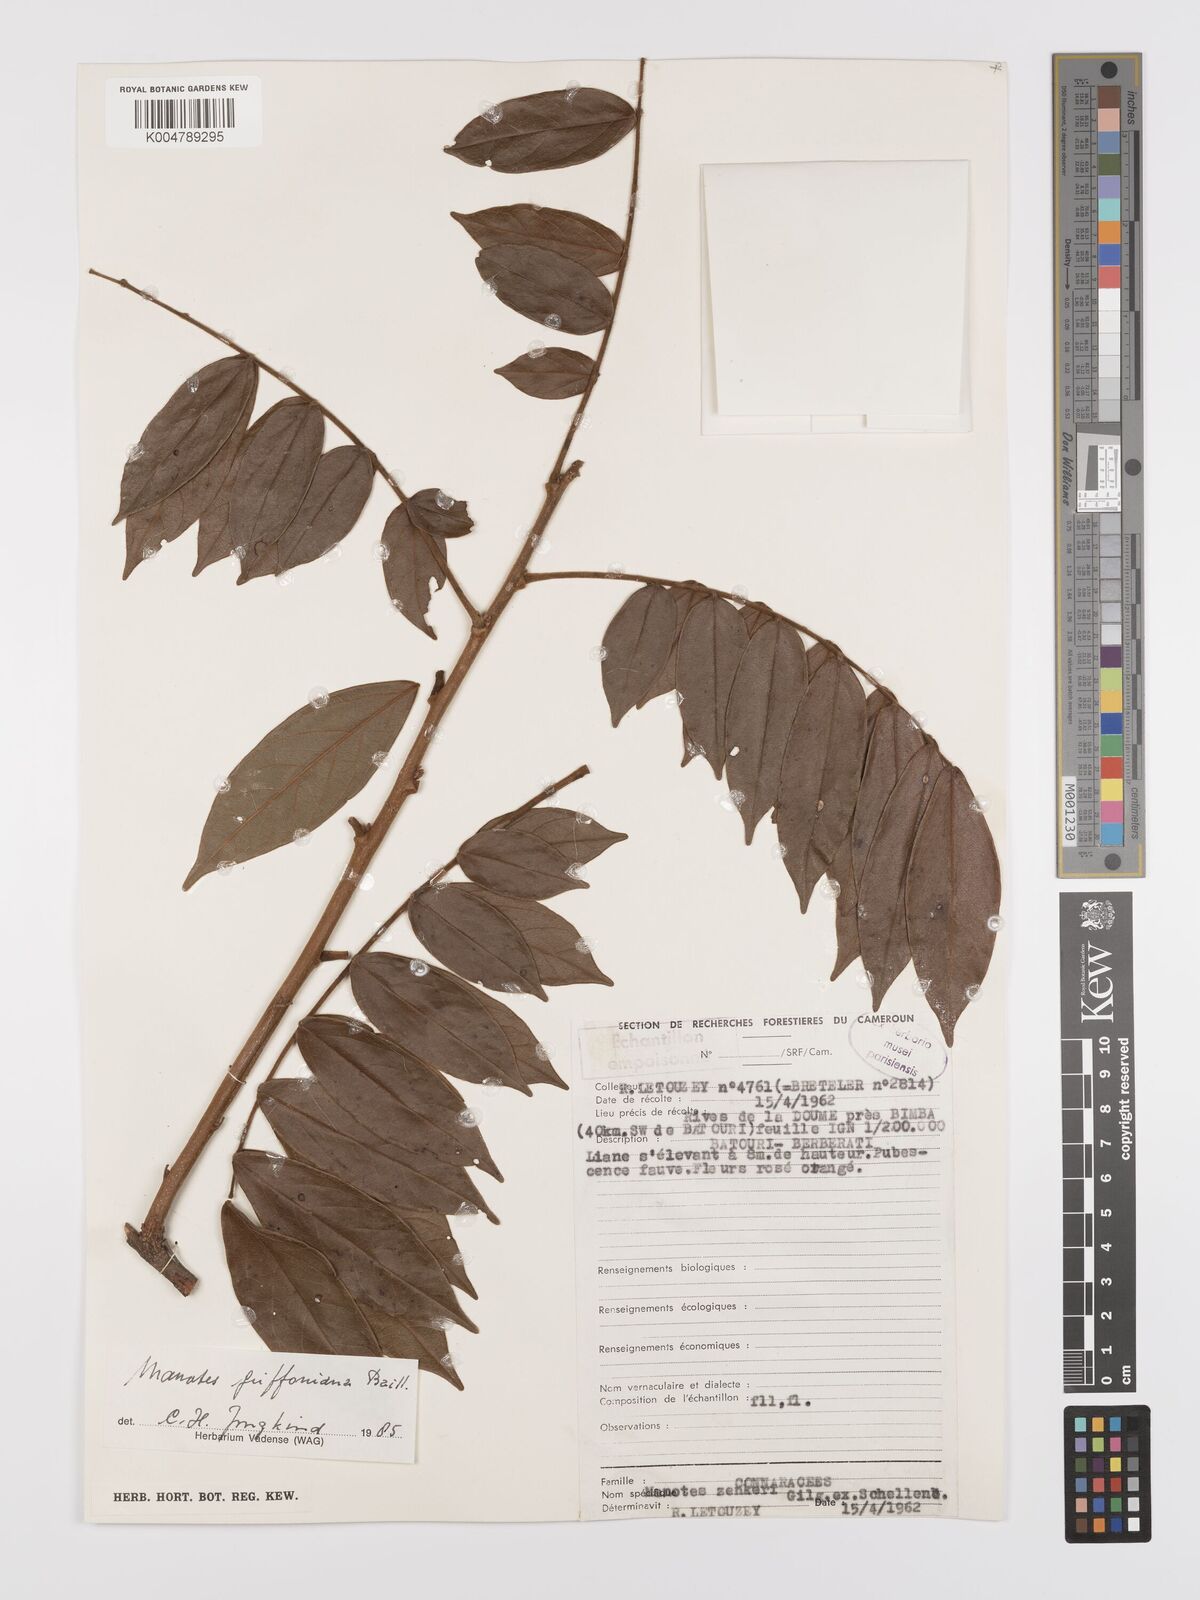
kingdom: Plantae
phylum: Tracheophyta
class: Magnoliopsida
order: Oxalidales
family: Connaraceae
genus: Manotes
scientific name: Manotes griffoniana
